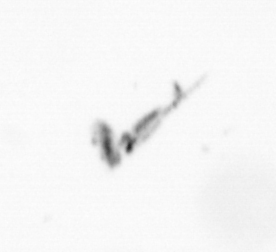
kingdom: Animalia
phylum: Arthropoda
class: Copepoda
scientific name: Copepoda
